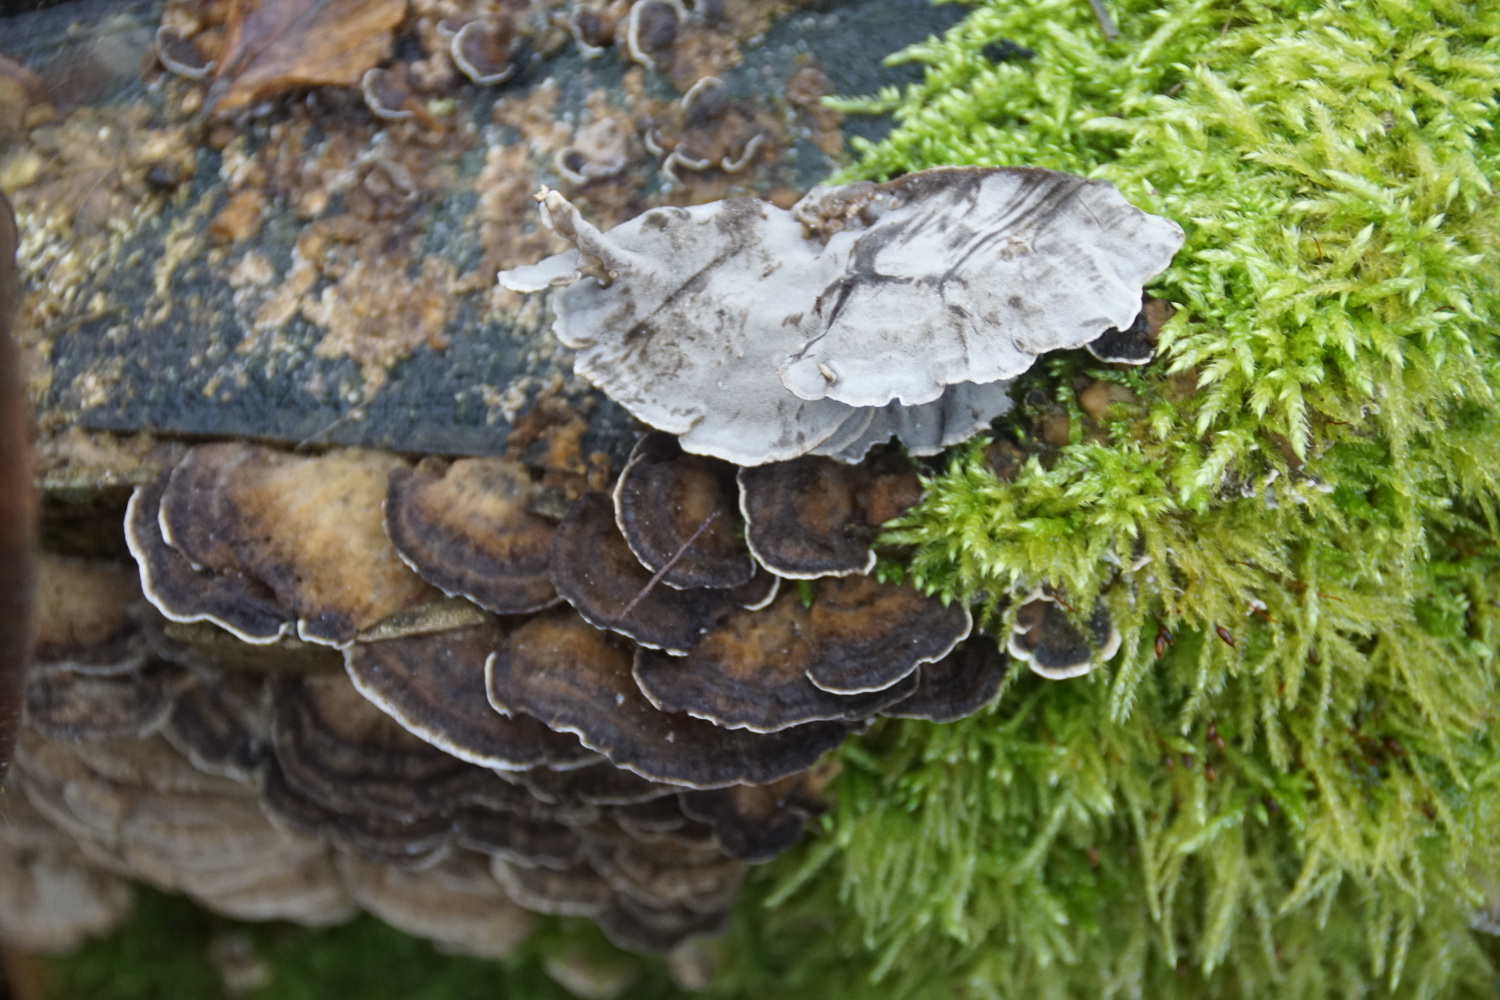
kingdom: Fungi
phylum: Basidiomycota
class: Agaricomycetes
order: Polyporales
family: Phanerochaetaceae
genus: Bjerkandera
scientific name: Bjerkandera adusta
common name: sveden sodporesvamp
